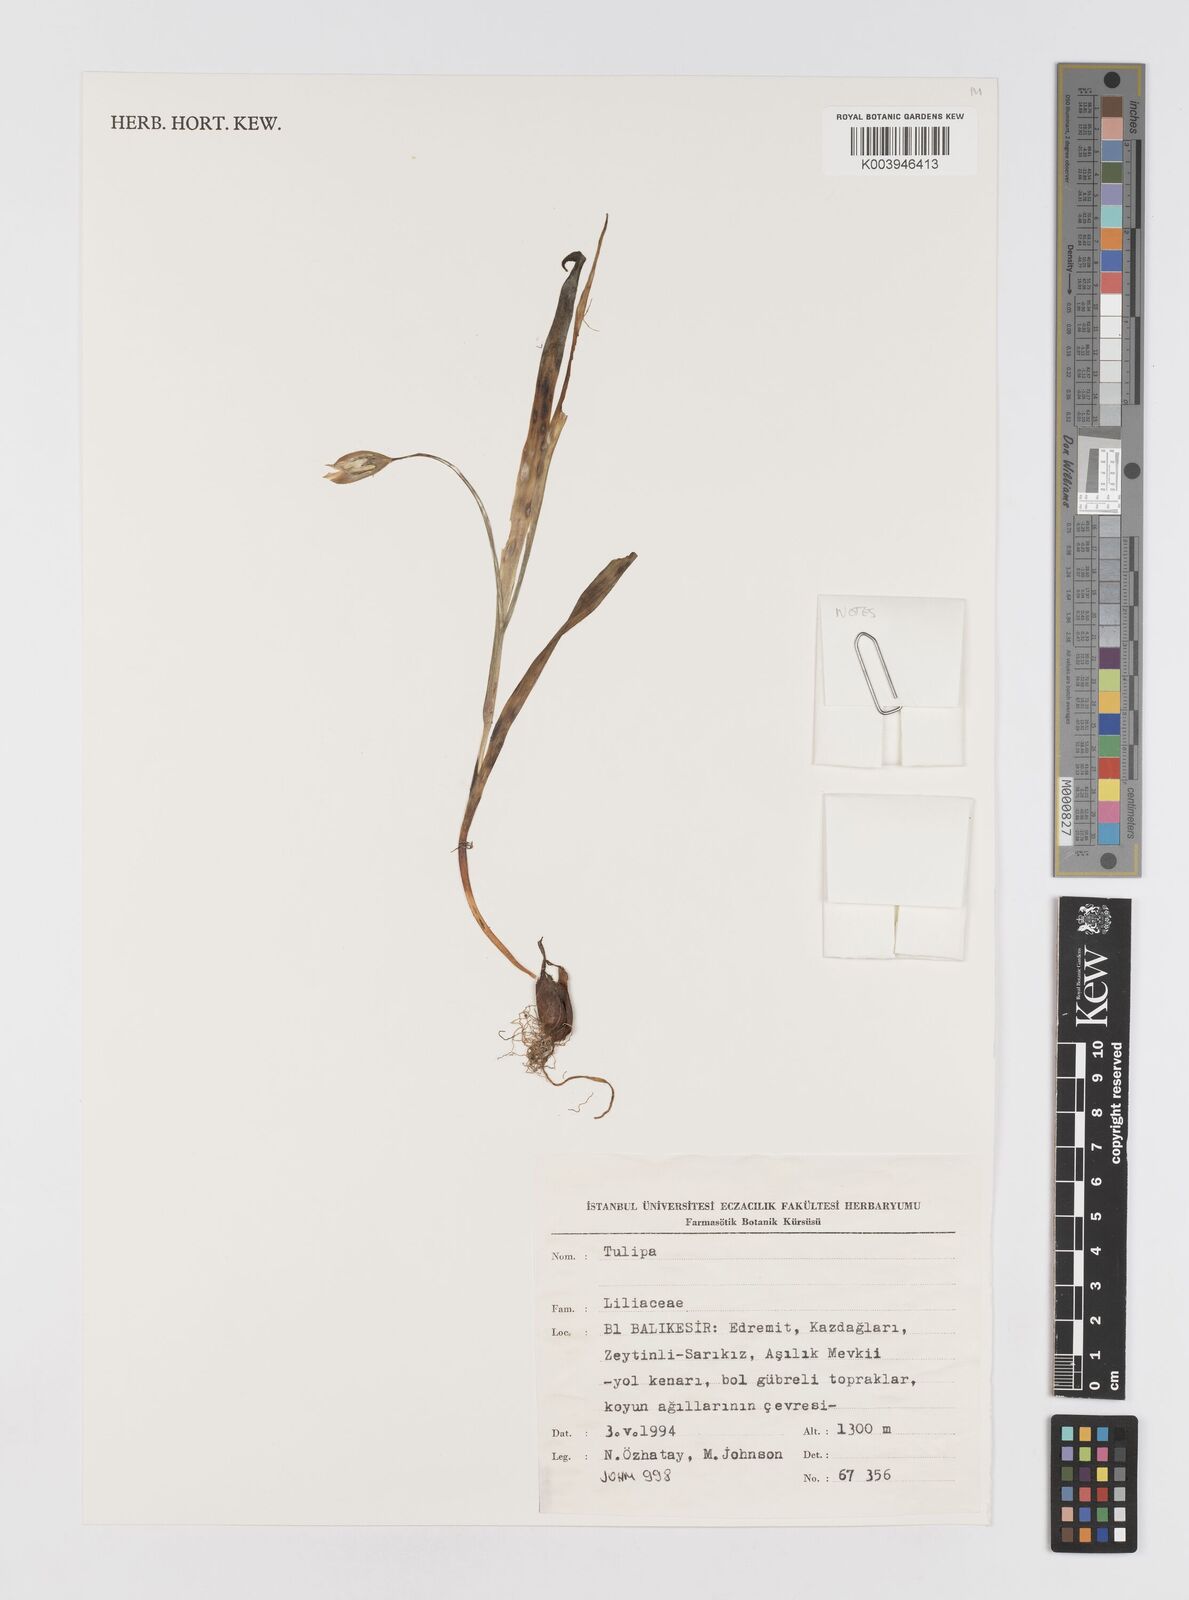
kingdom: Plantae
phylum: Tracheophyta
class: Liliopsida
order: Liliales
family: Liliaceae
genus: Tulipa
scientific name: Tulipa
